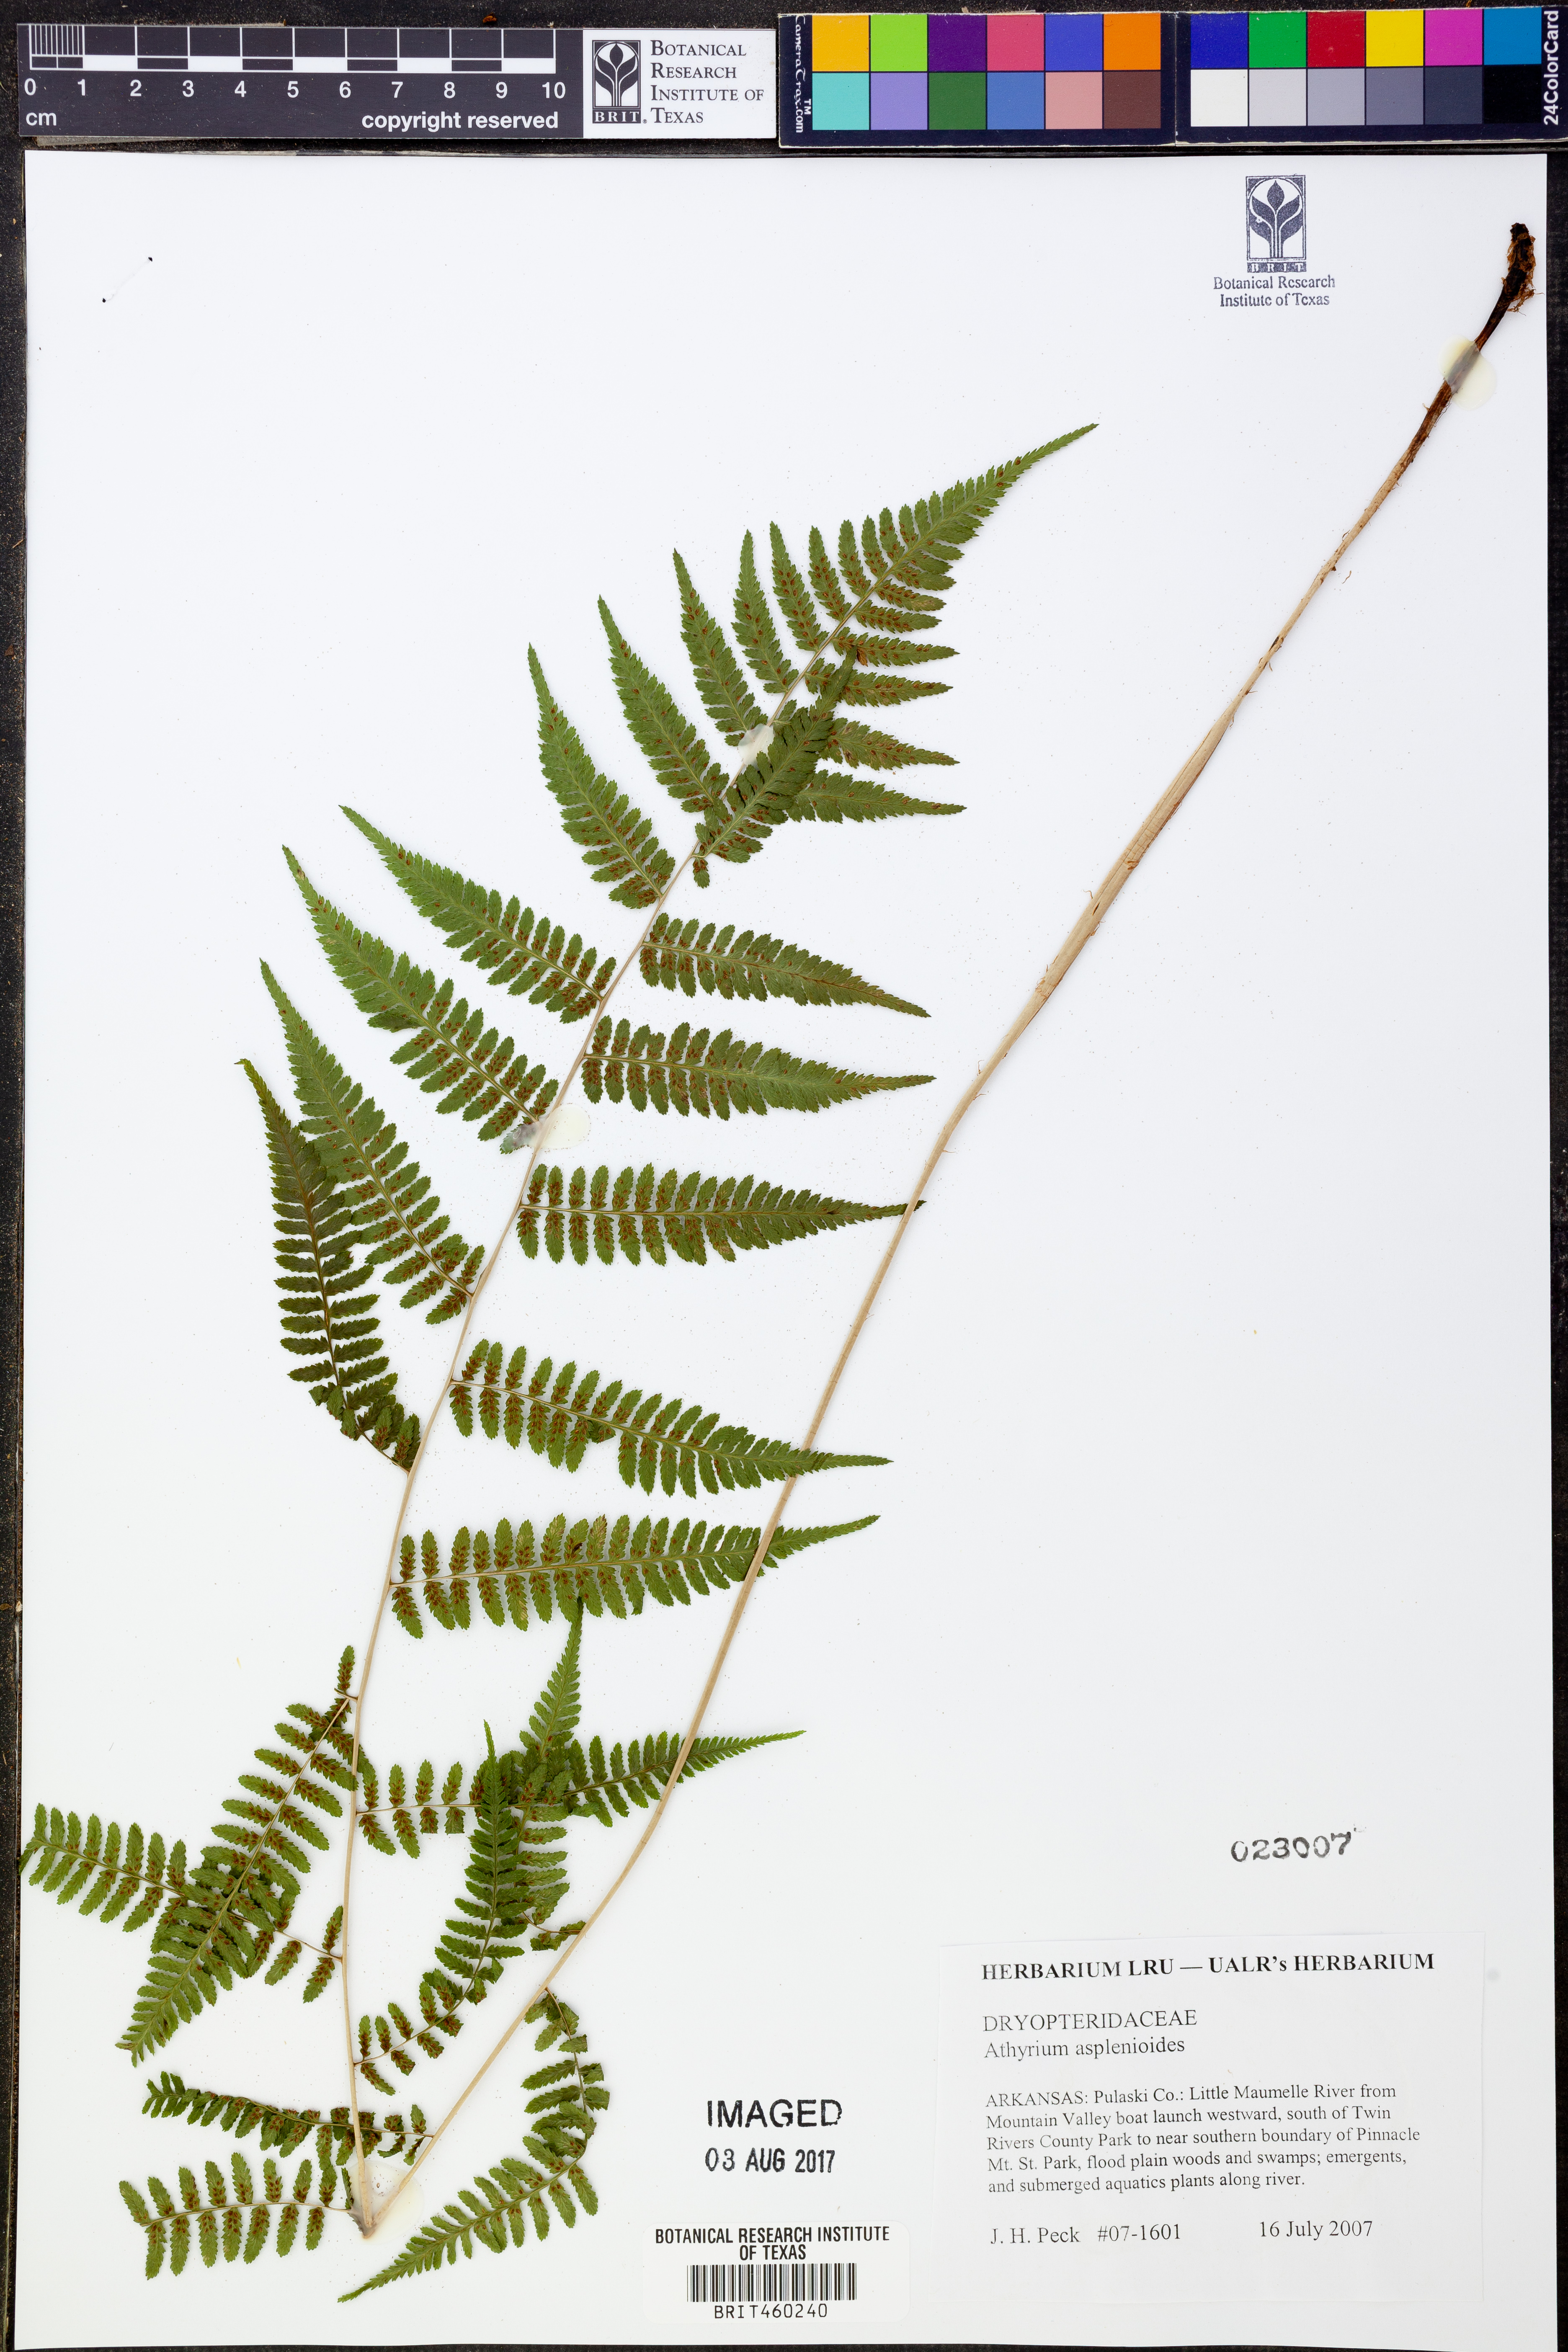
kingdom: Plantae
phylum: Tracheophyta
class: Polypodiopsida
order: Polypodiales
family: Athyriaceae
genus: Athyrium
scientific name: Athyrium asplenioides
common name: Southern lady fern
